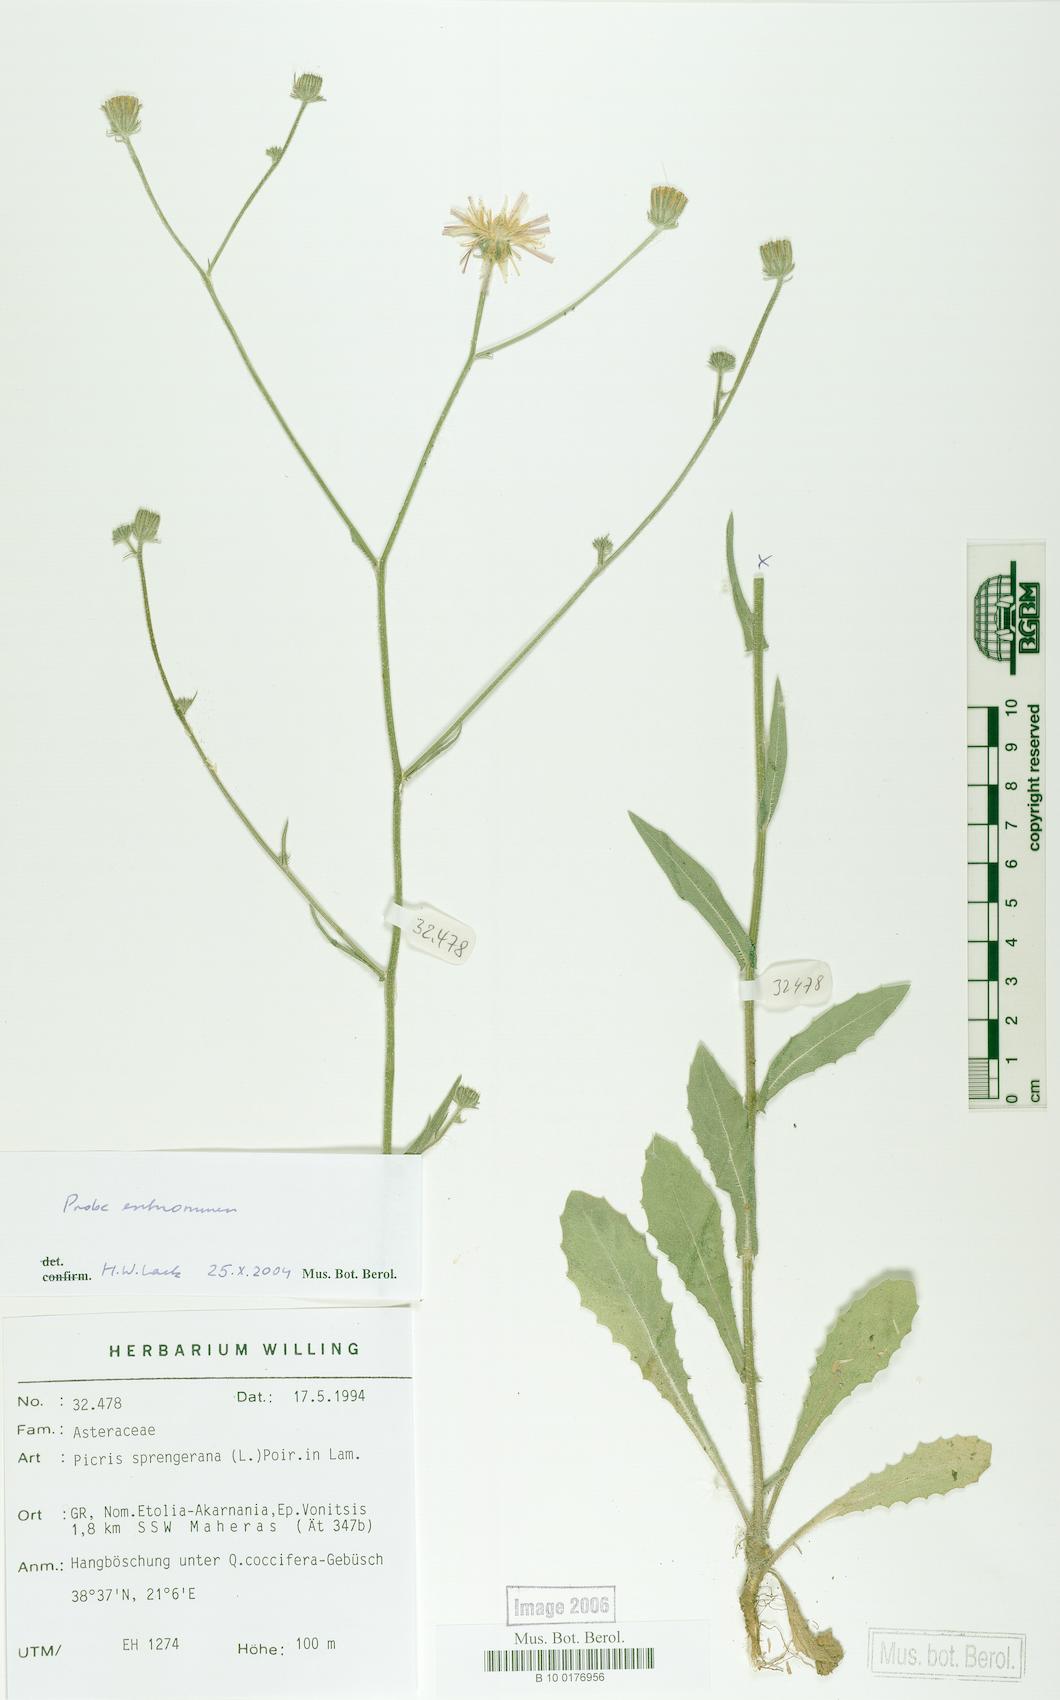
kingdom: Plantae
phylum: Tracheophyta
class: Magnoliopsida
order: Asterales
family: Asteraceae
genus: Picris
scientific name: Picris rhagadioloides
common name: Oxtongue
